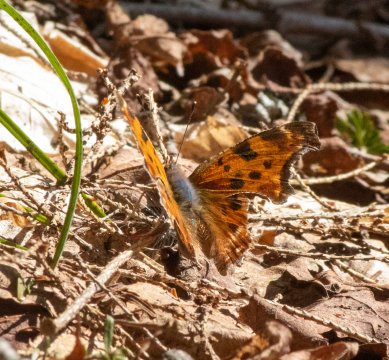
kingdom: Animalia
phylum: Arthropoda
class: Insecta
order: Lepidoptera
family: Nymphalidae
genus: Polygonia
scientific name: Polygonia comma
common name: Eastern Comma
